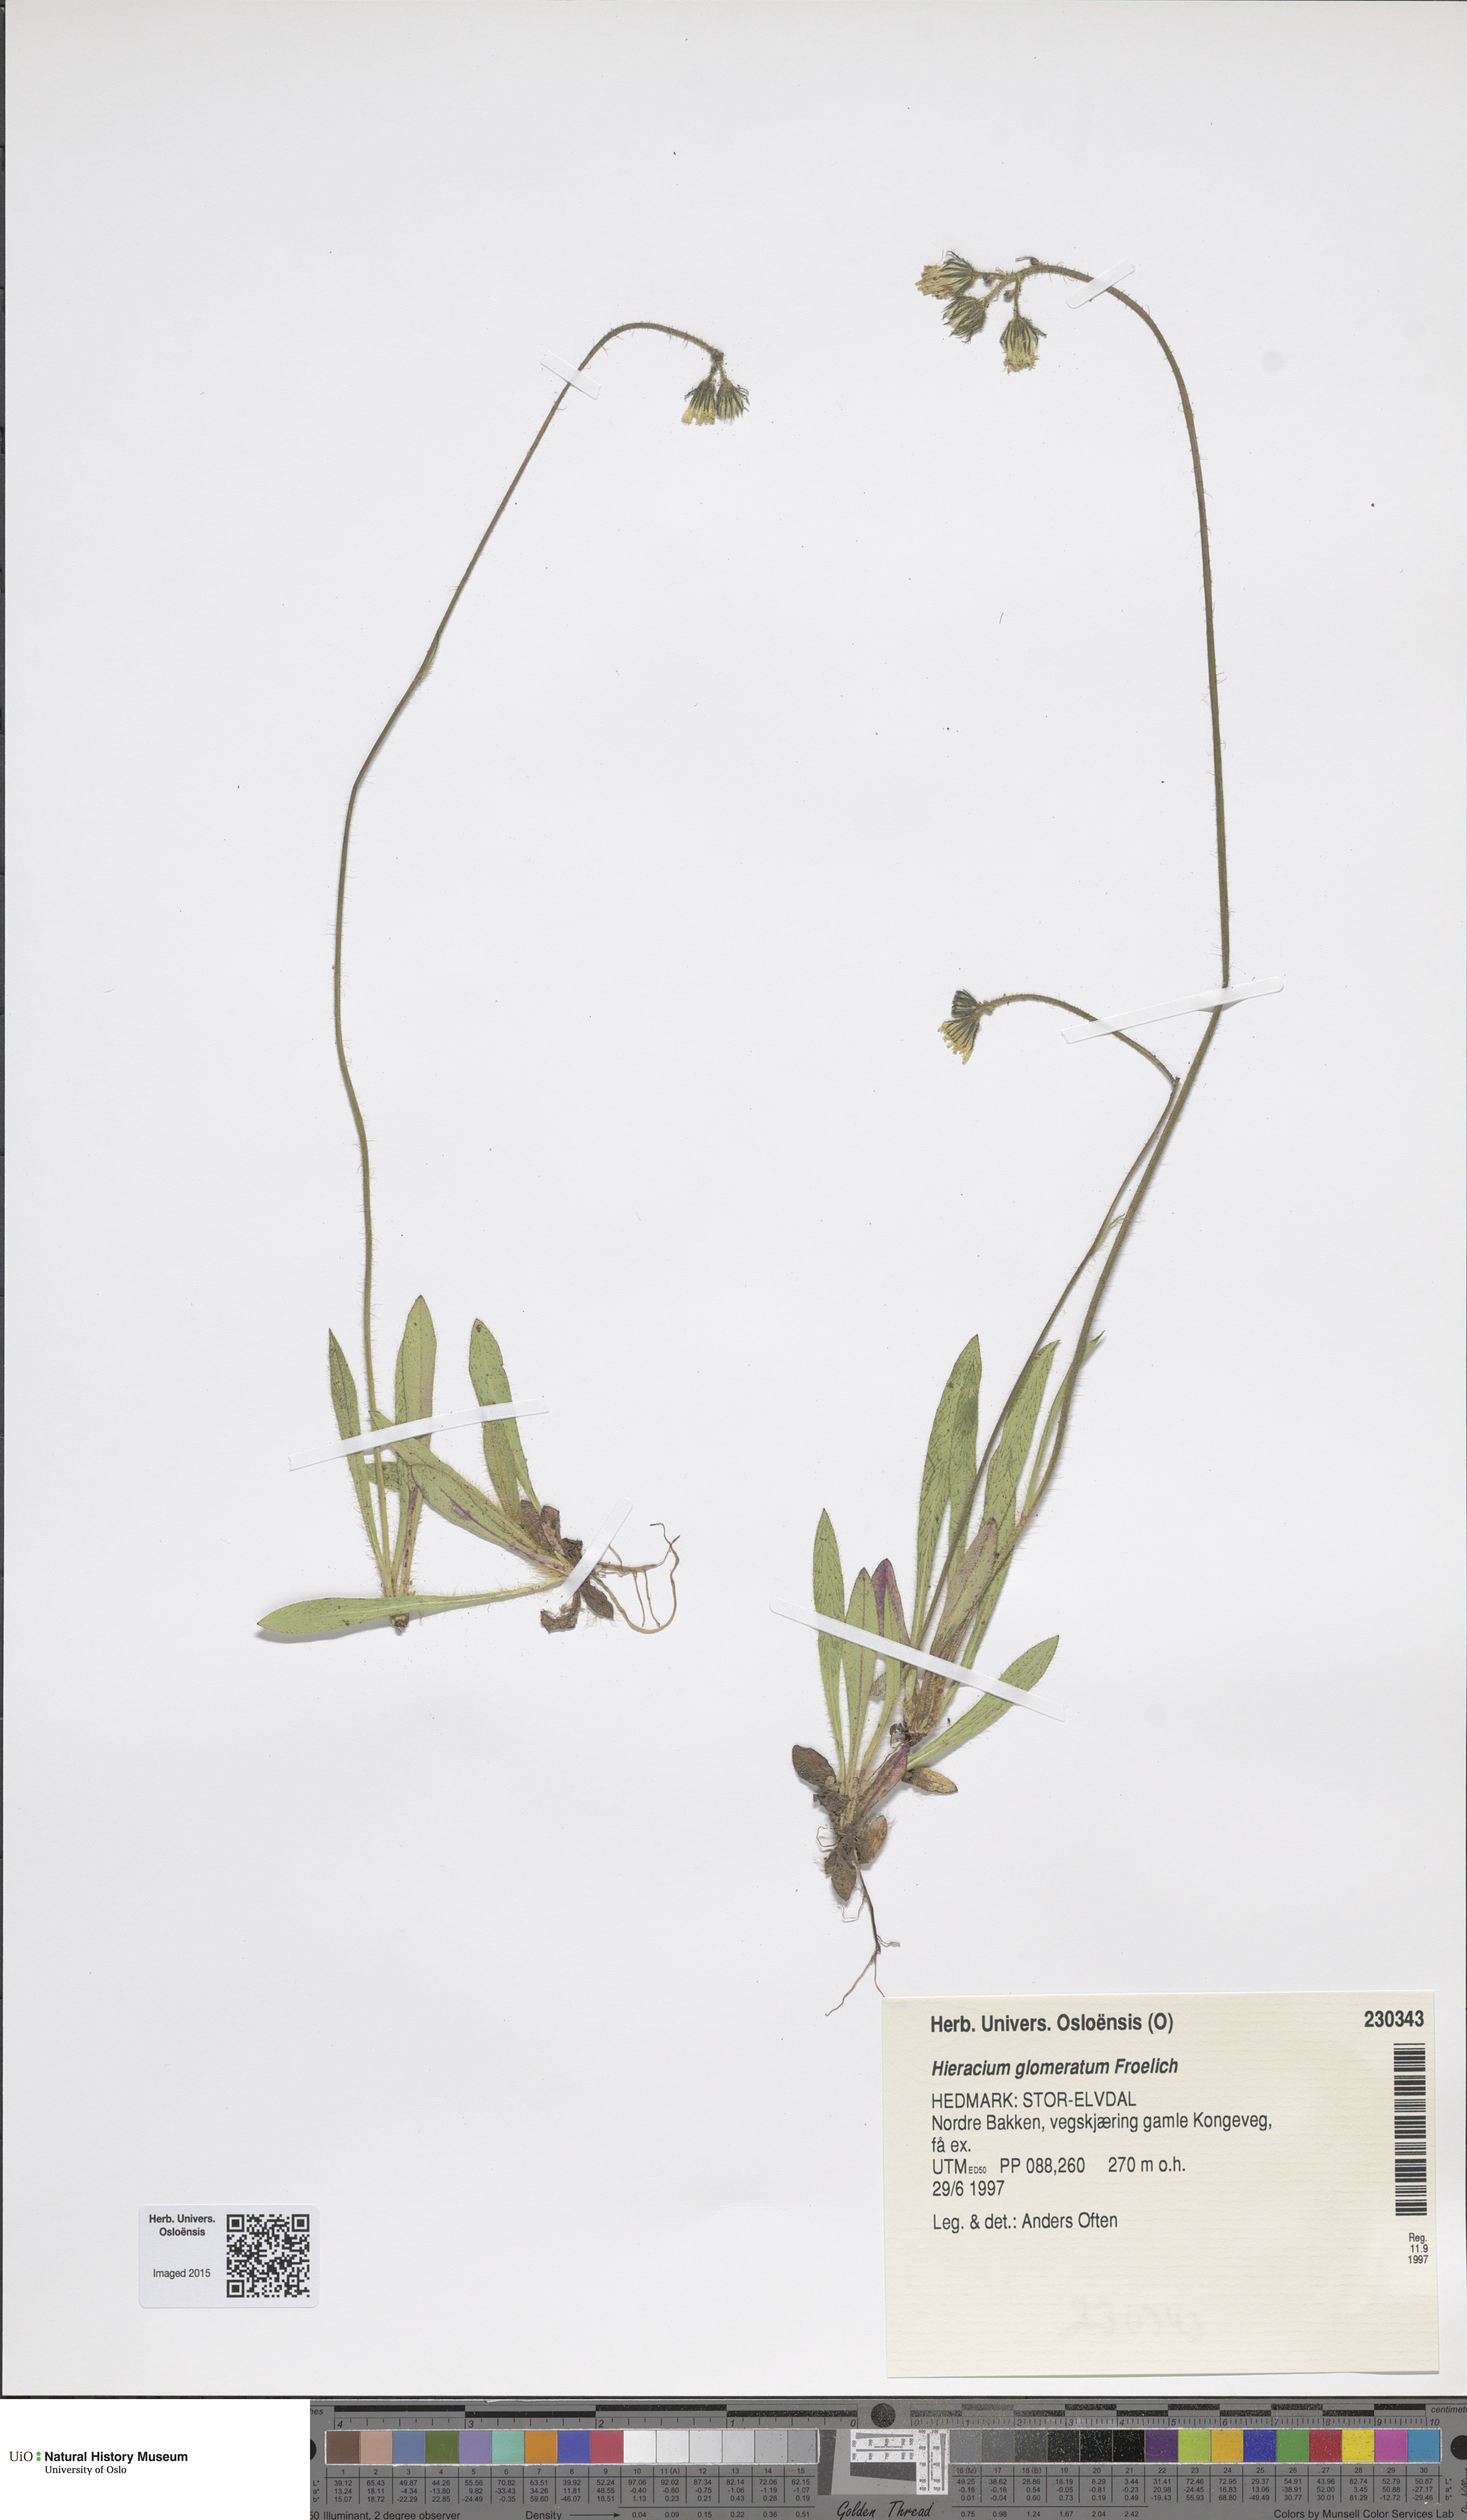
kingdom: Plantae
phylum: Tracheophyta
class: Magnoliopsida
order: Asterales
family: Asteraceae
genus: Pilosella
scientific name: Pilosella glomerata
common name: Queen devil hawkweed
